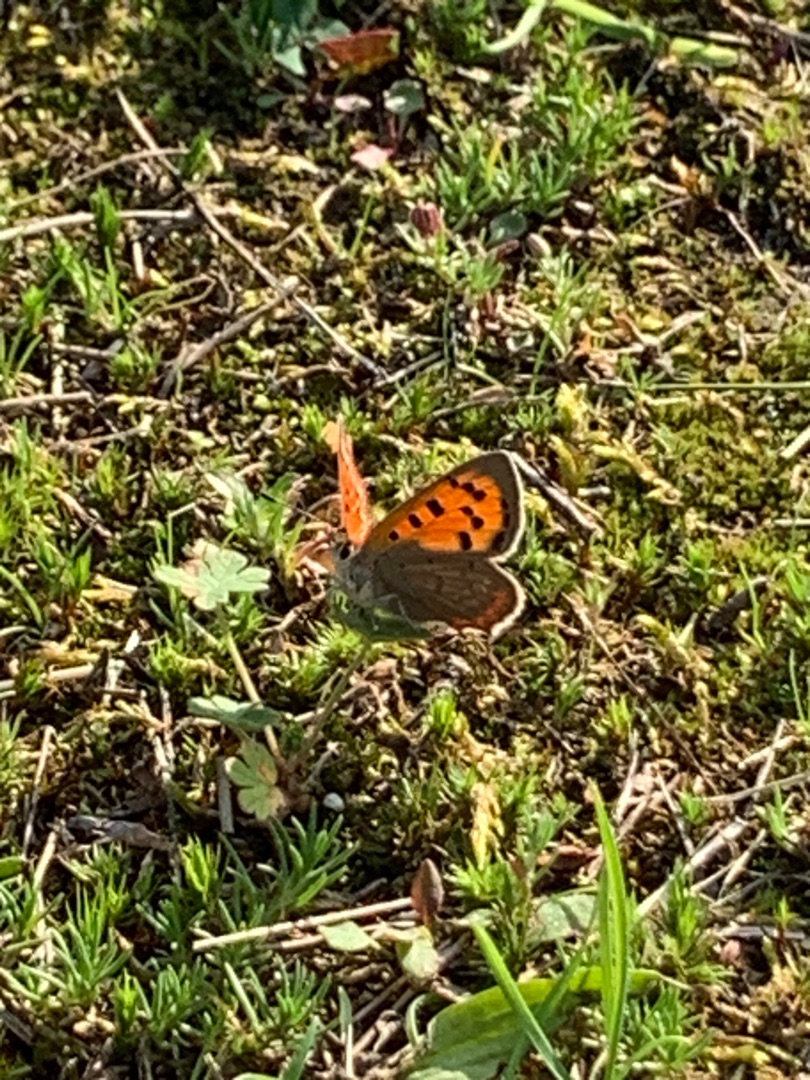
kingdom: Animalia
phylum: Arthropoda
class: Insecta
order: Lepidoptera
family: Lycaenidae
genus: Lycaena
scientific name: Lycaena phlaeas
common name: Lille ildfugl
